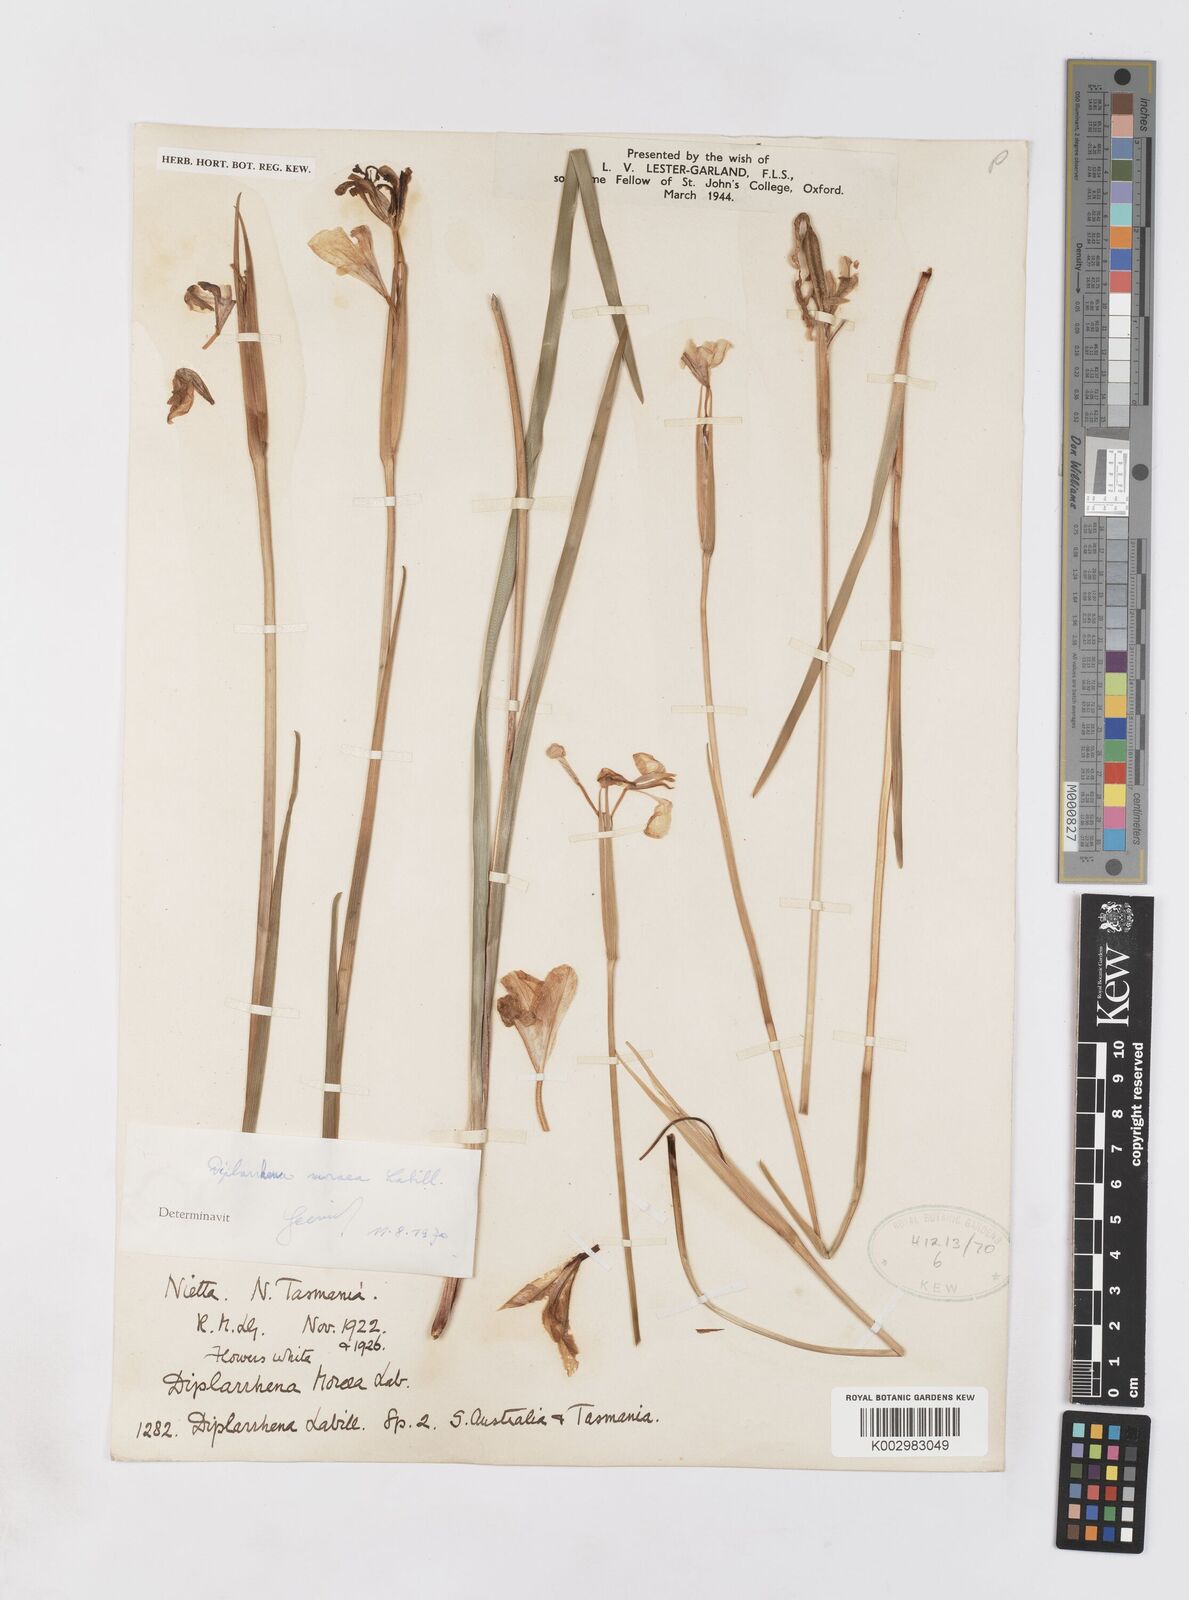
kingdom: Plantae
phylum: Tracheophyta
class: Liliopsida
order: Asparagales
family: Iridaceae
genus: Diplarrena
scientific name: Diplarrena moraea
